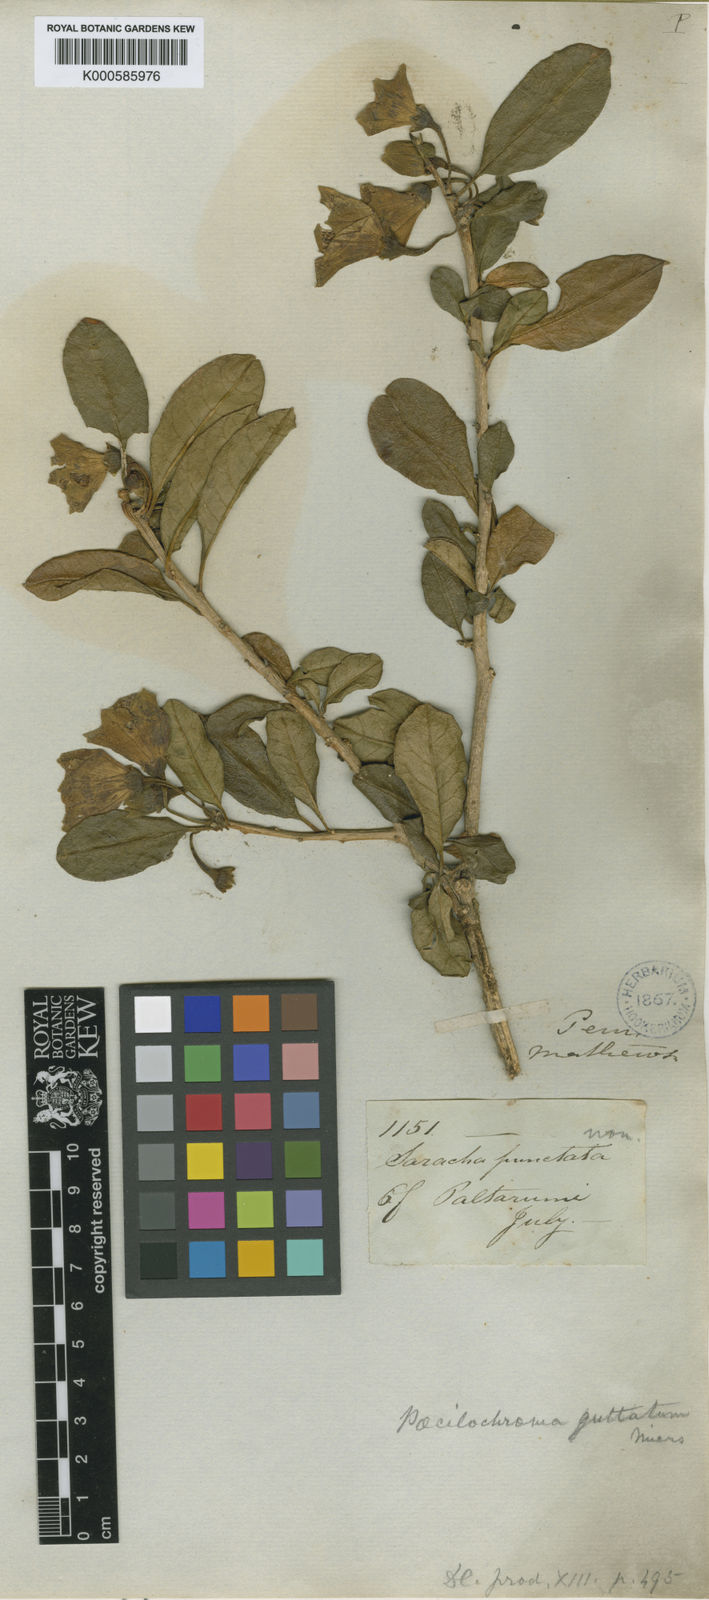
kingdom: Animalia
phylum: Arthropoda
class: Insecta
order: Hemiptera
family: Pentatomidae
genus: Poecilochroma
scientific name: Poecilochroma
